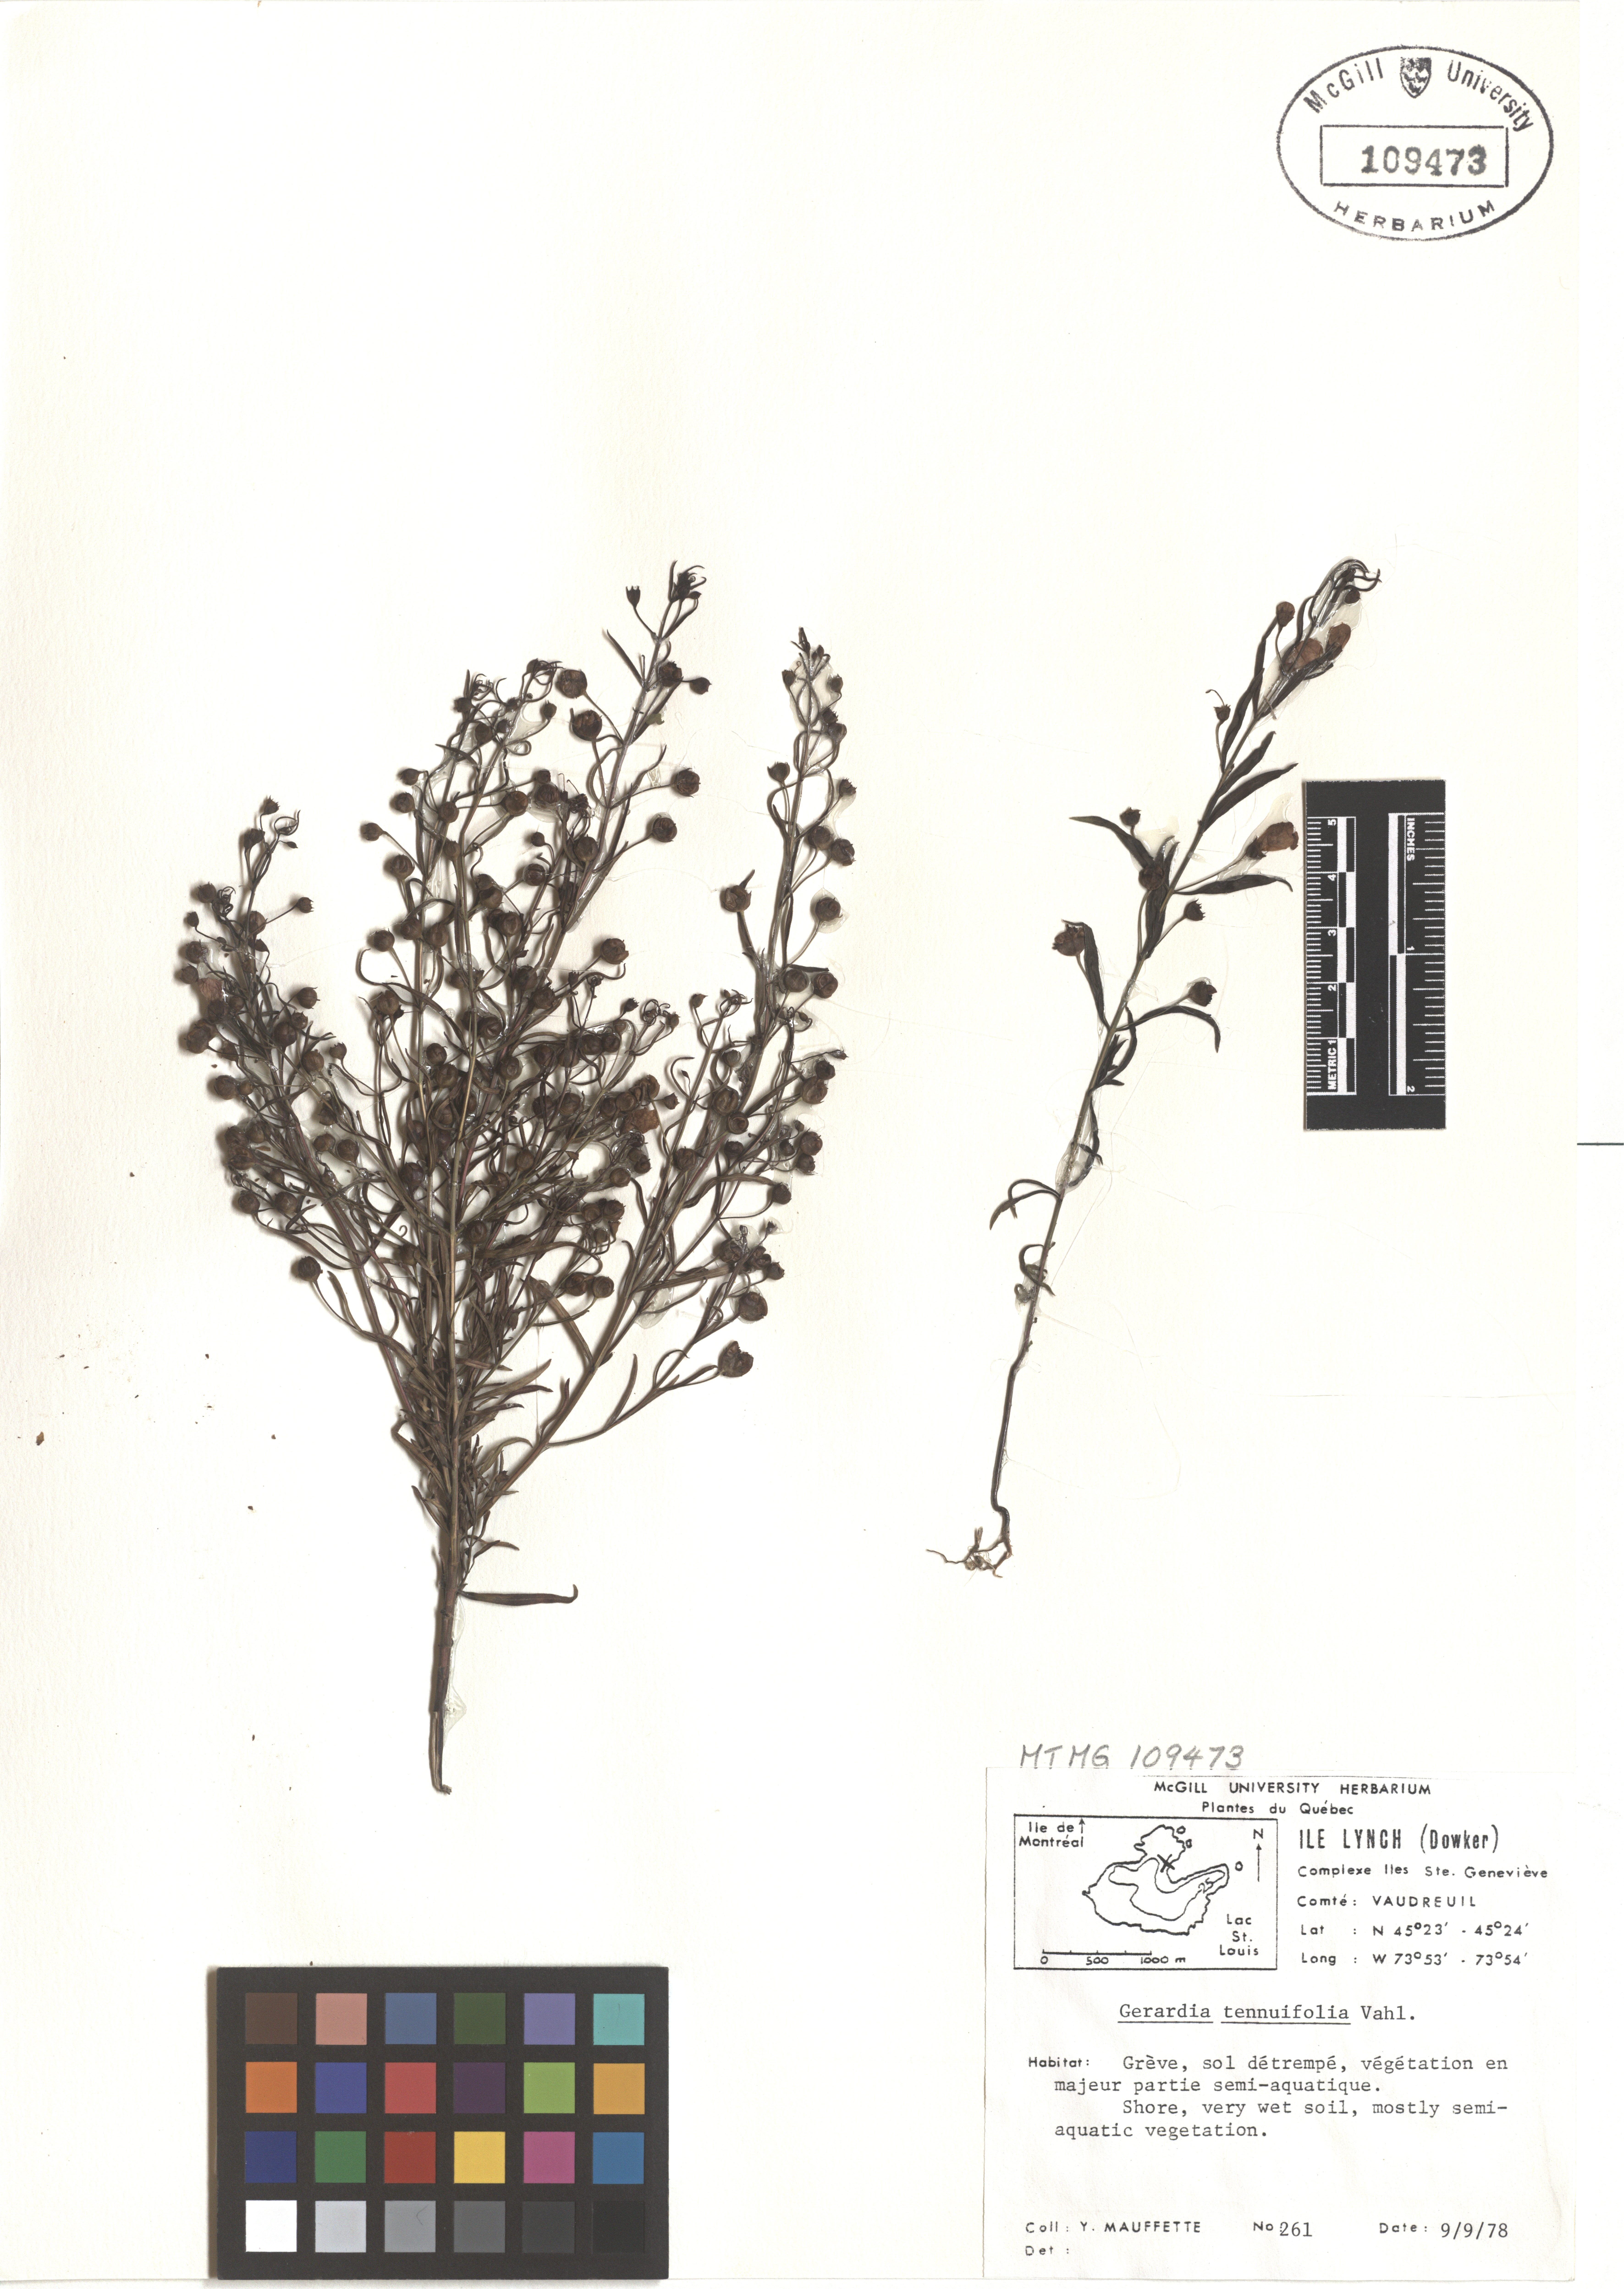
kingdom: Plantae
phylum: Tracheophyta
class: Magnoliopsida
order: Lamiales
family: Orobanchaceae
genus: Agalinis
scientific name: Agalinis tenuifolia
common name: Slender agalinis
